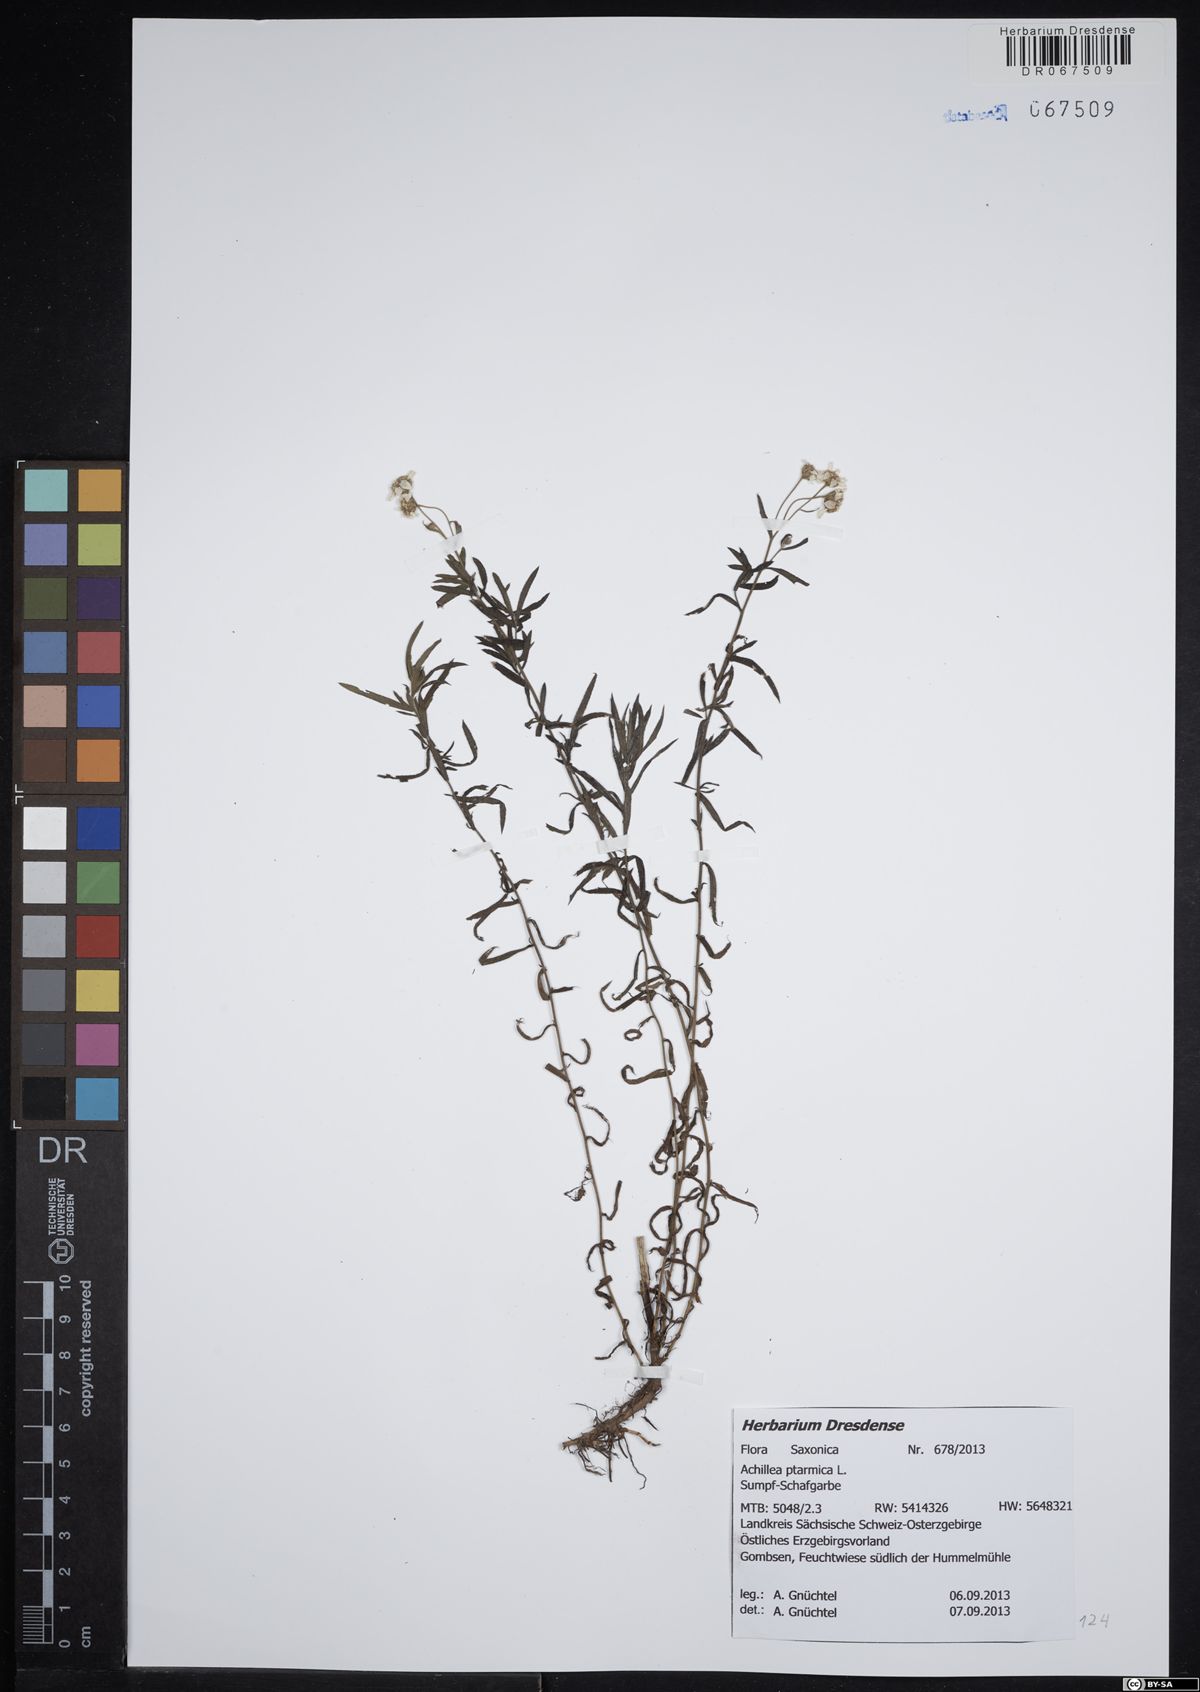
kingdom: Plantae
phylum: Tracheophyta
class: Magnoliopsida
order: Asterales
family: Asteraceae
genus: Achillea
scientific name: Achillea ptarmica
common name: Sneezeweed
